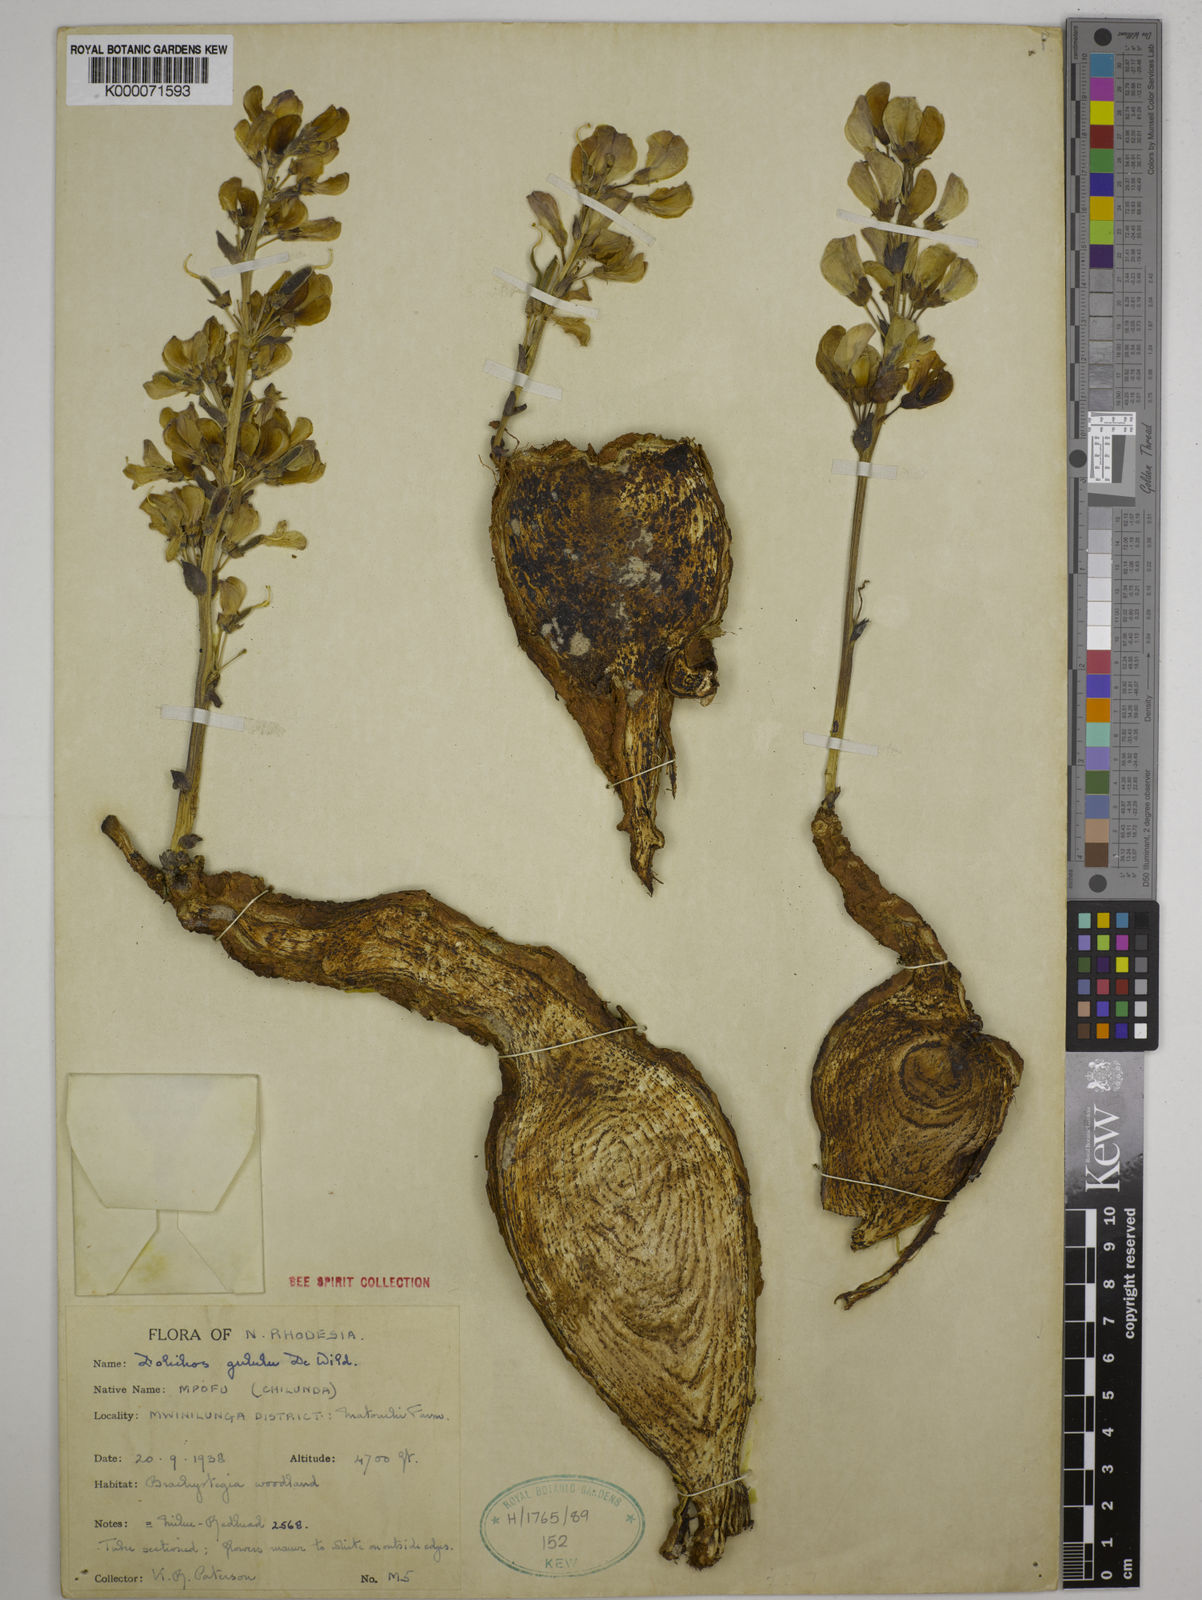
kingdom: Plantae
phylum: Tracheophyta
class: Magnoliopsida
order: Fabales
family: Fabaceae
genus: Dolichos
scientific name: Dolichos gululu
